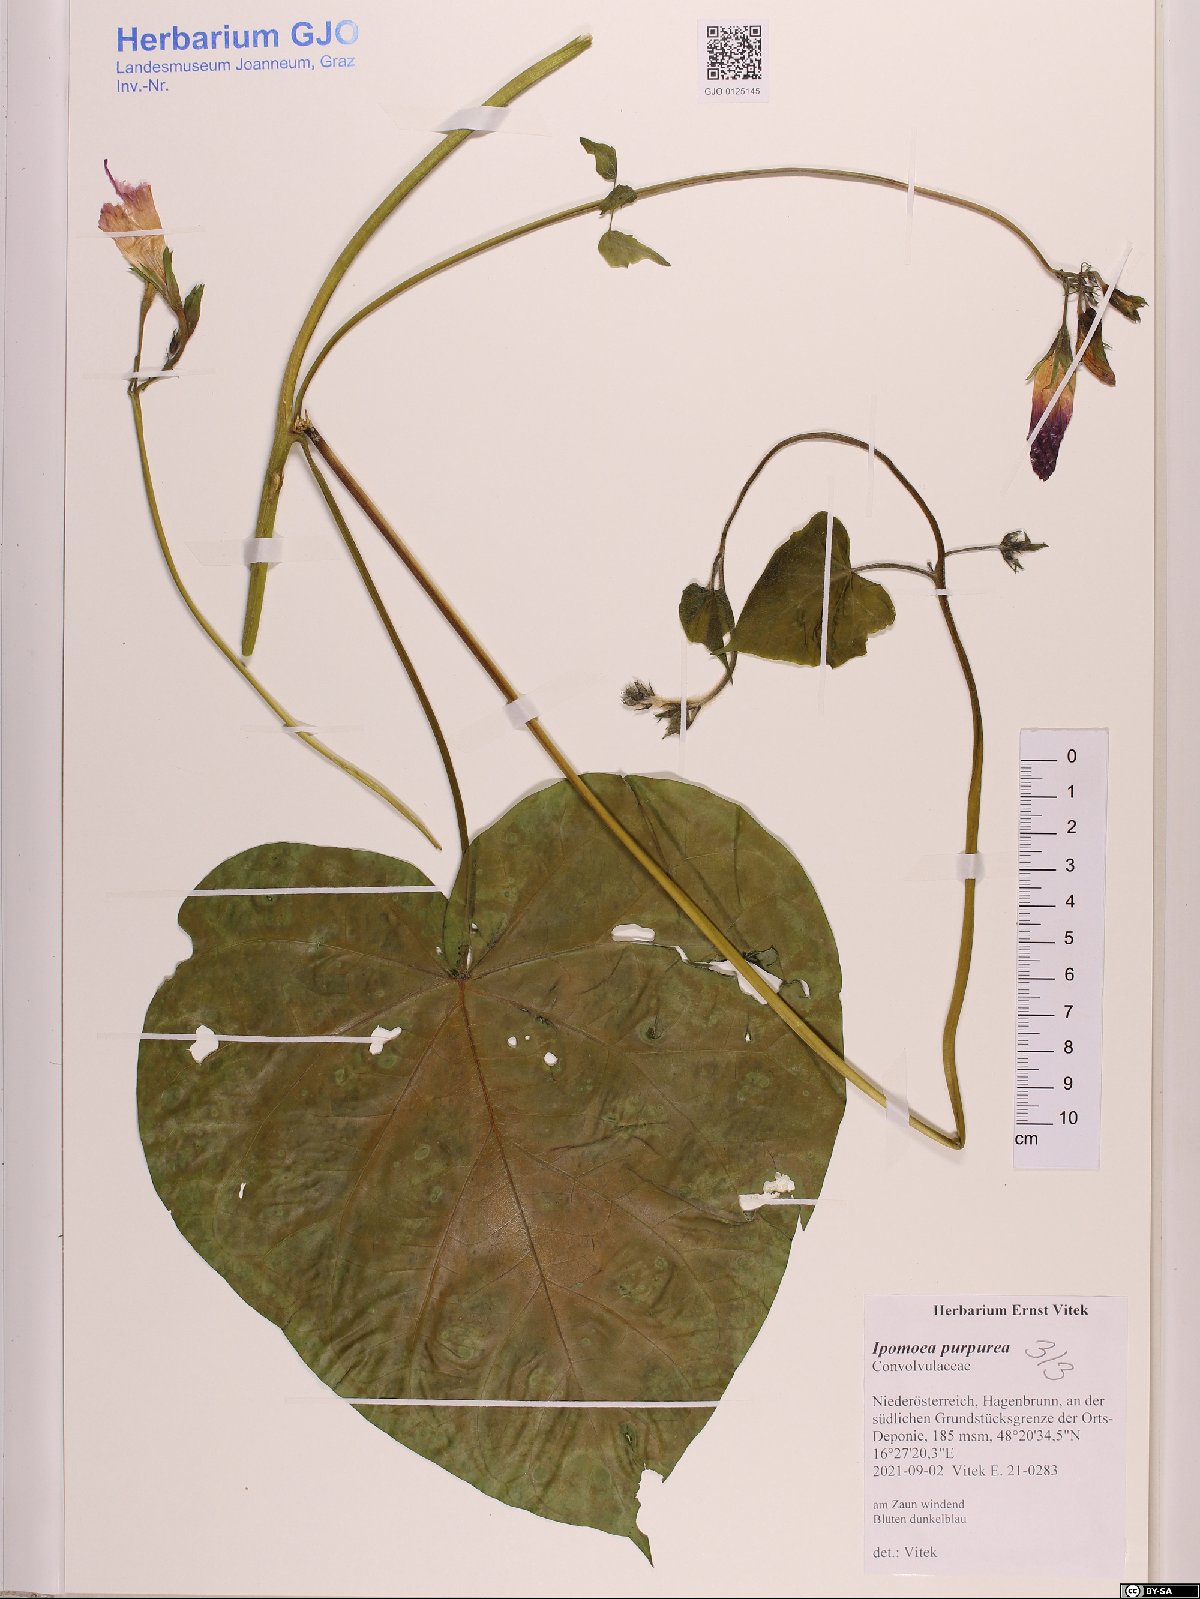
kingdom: Plantae
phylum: Tracheophyta
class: Magnoliopsida
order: Solanales
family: Convolvulaceae
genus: Ipomoea
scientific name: Ipomoea purpurea
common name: Common morning-glory
